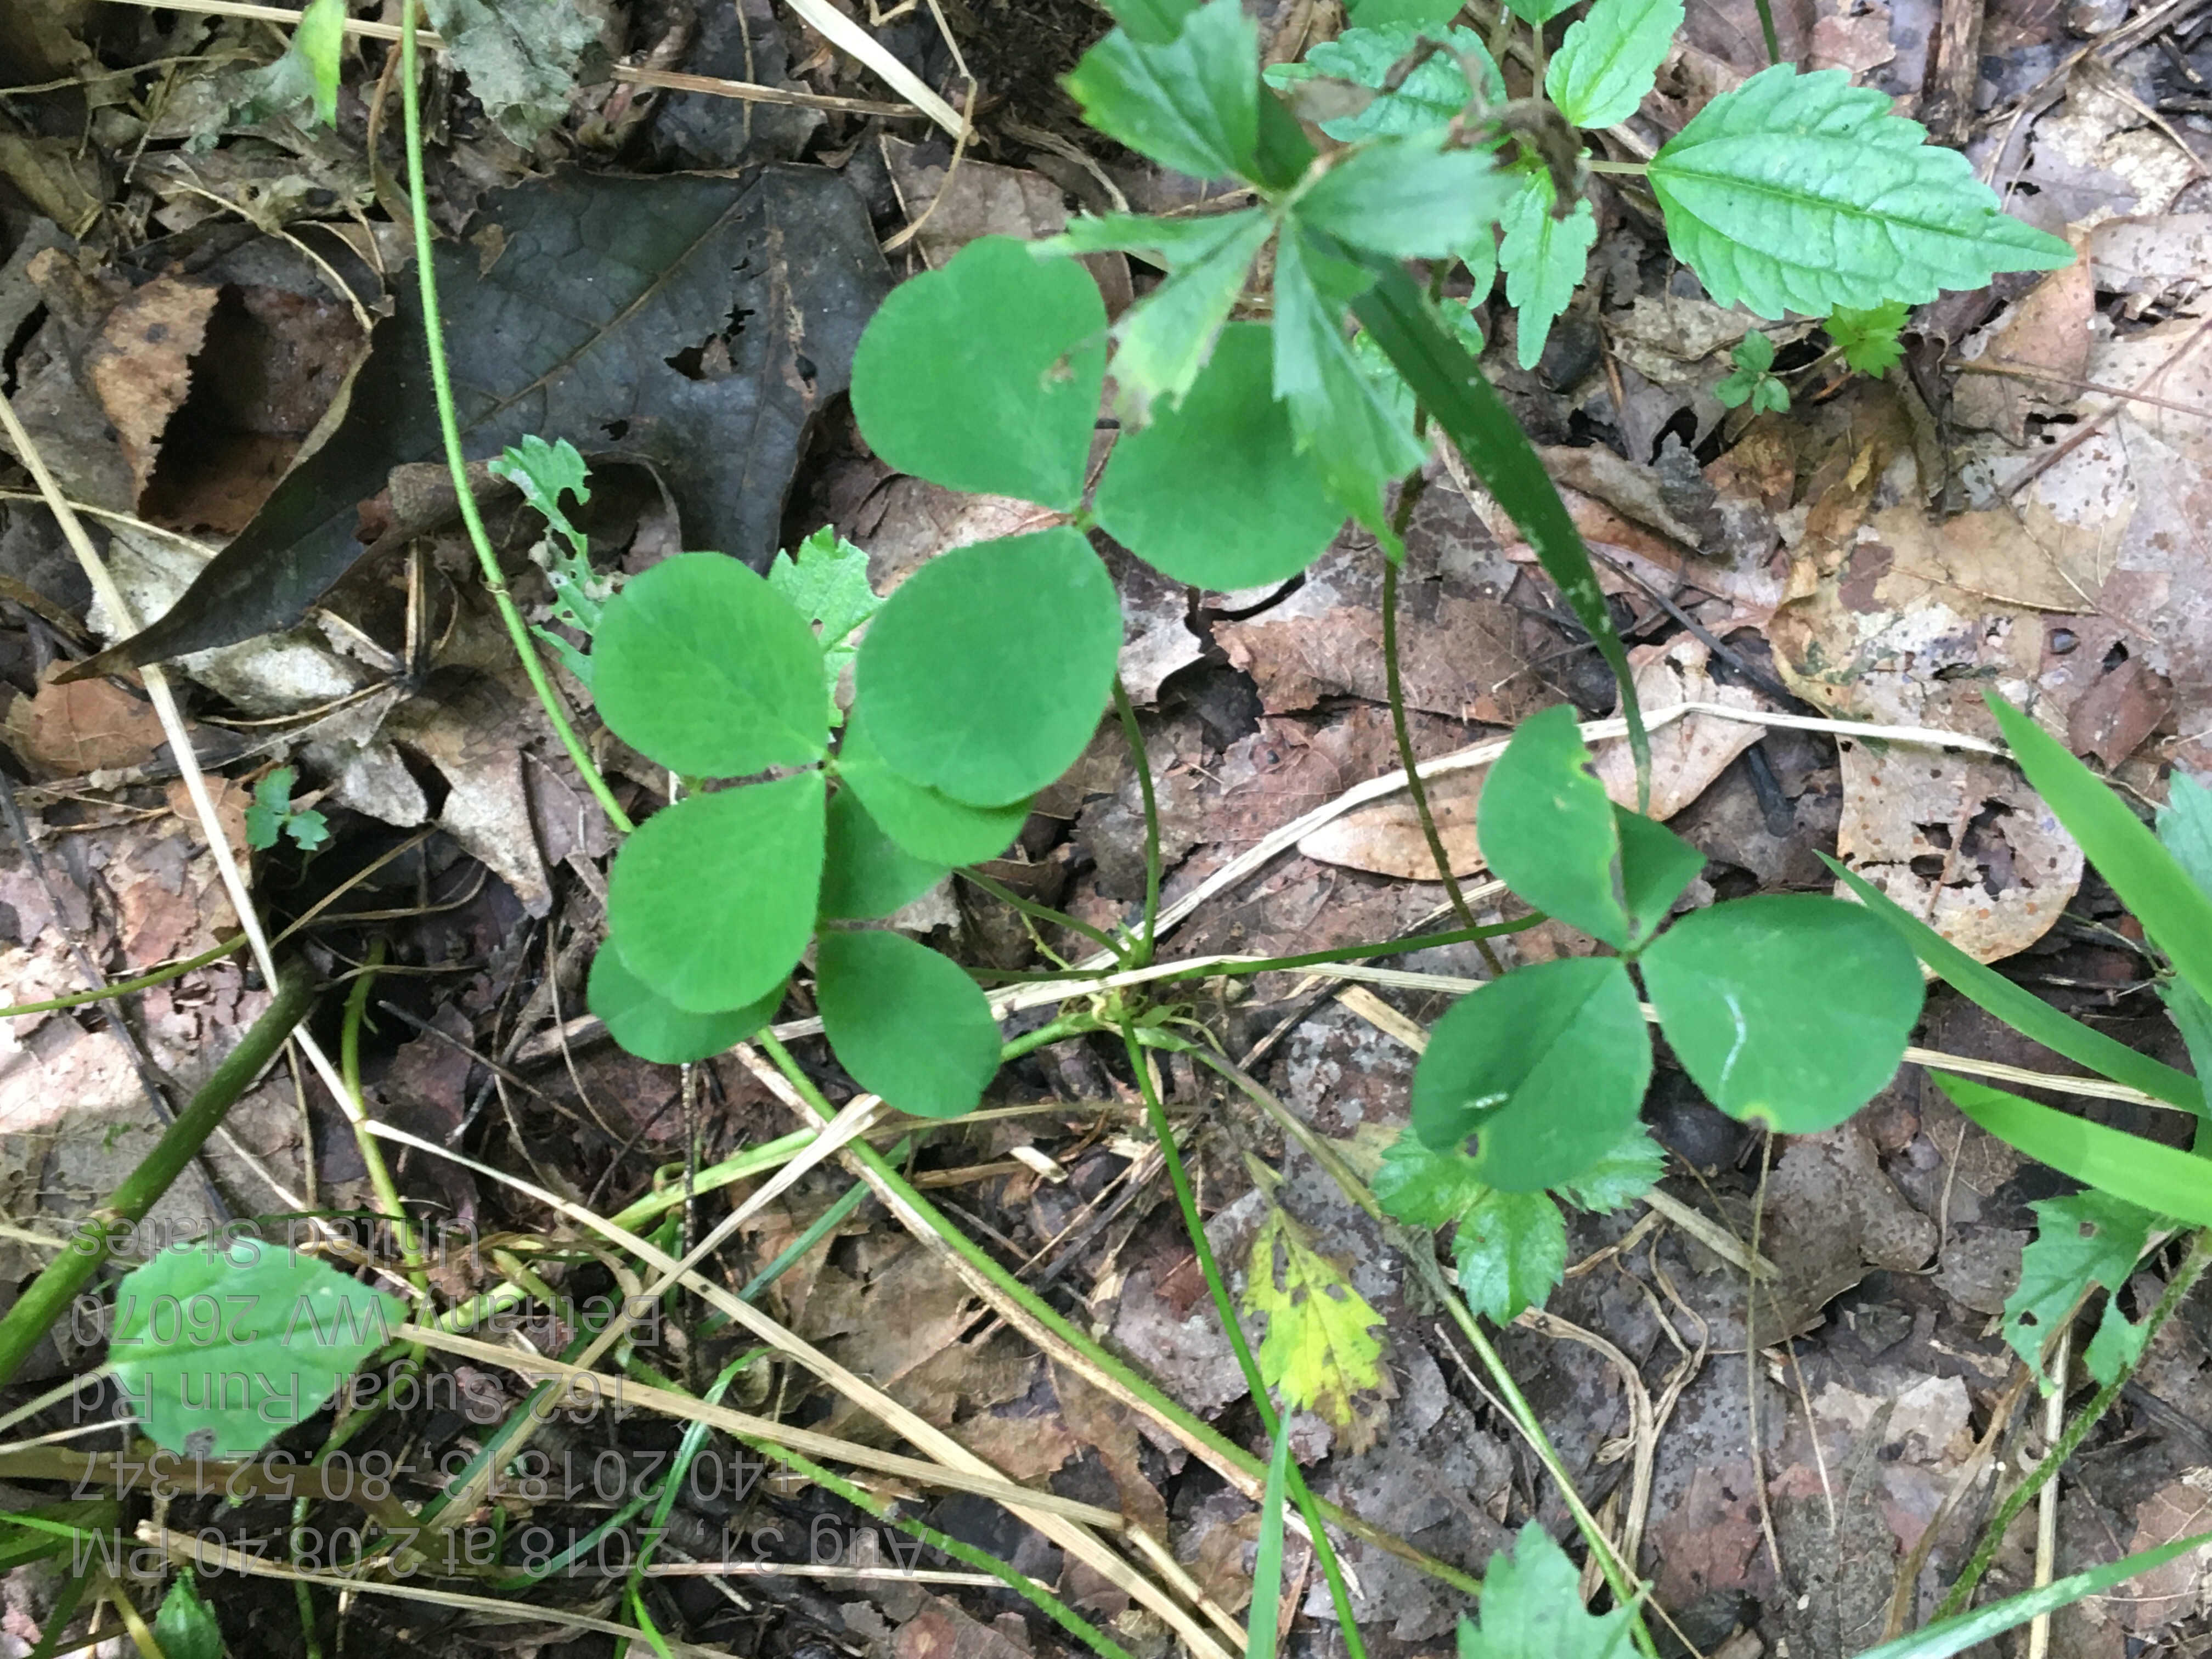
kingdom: Plantae
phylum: Tracheophyta
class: Magnoliopsida
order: Fabales
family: Fabaceae
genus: Trifolium
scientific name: Trifolium stoloniferum
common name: Running Buffalo Clover
